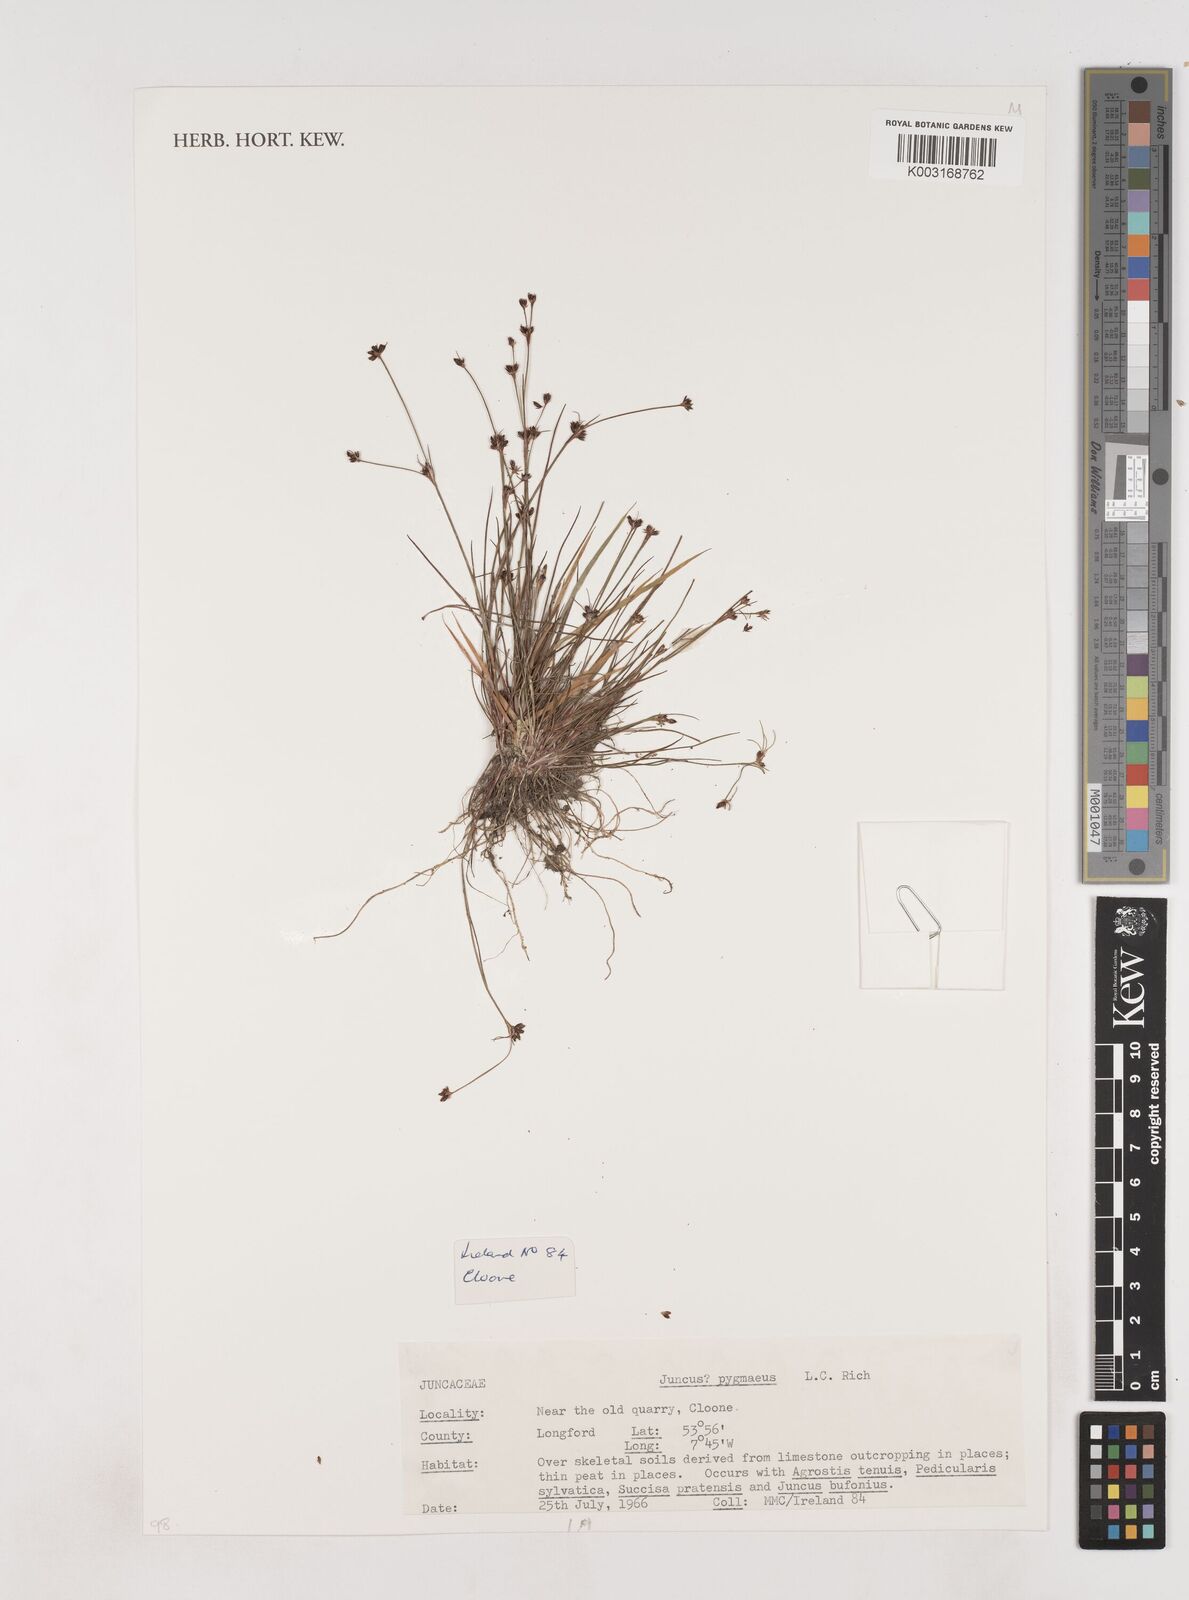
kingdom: Plantae
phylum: Tracheophyta
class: Liliopsida
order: Poales
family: Juncaceae
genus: Juncus
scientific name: Juncus pygmaeus
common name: Pigmy rush
